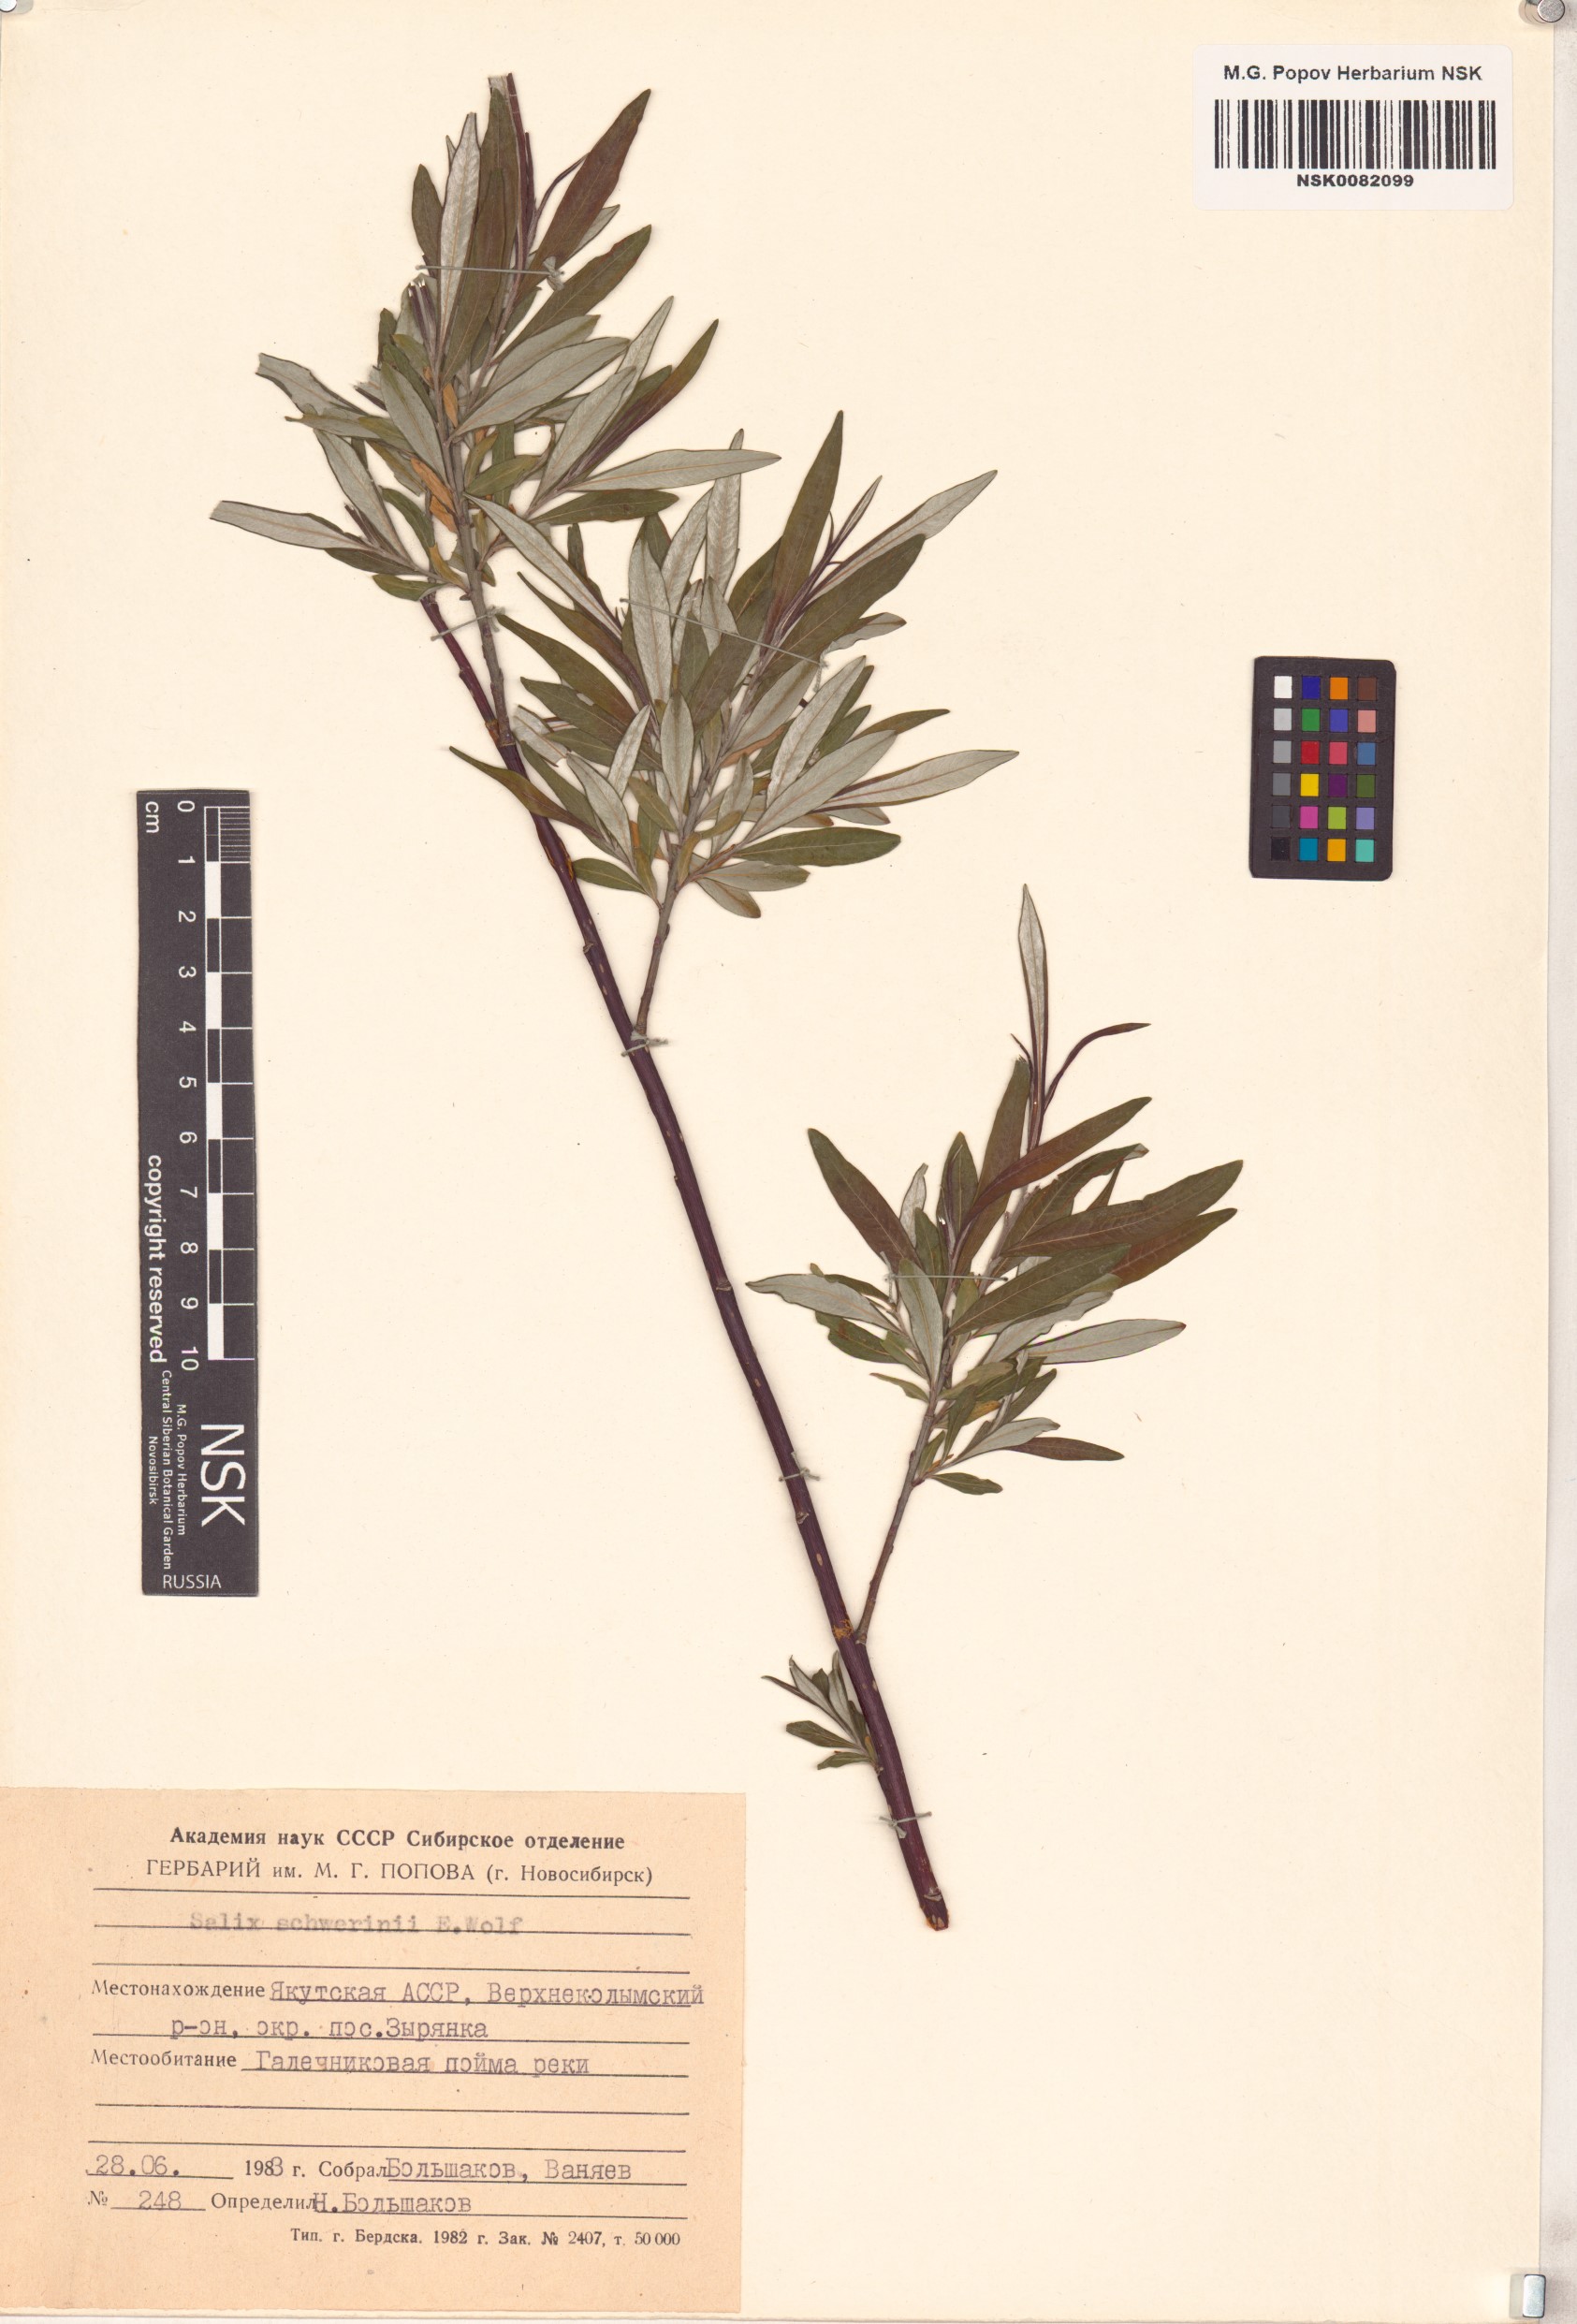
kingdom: Plantae
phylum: Tracheophyta
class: Magnoliopsida
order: Malpighiales
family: Salicaceae
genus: Salix
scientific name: Salix schwerinii
